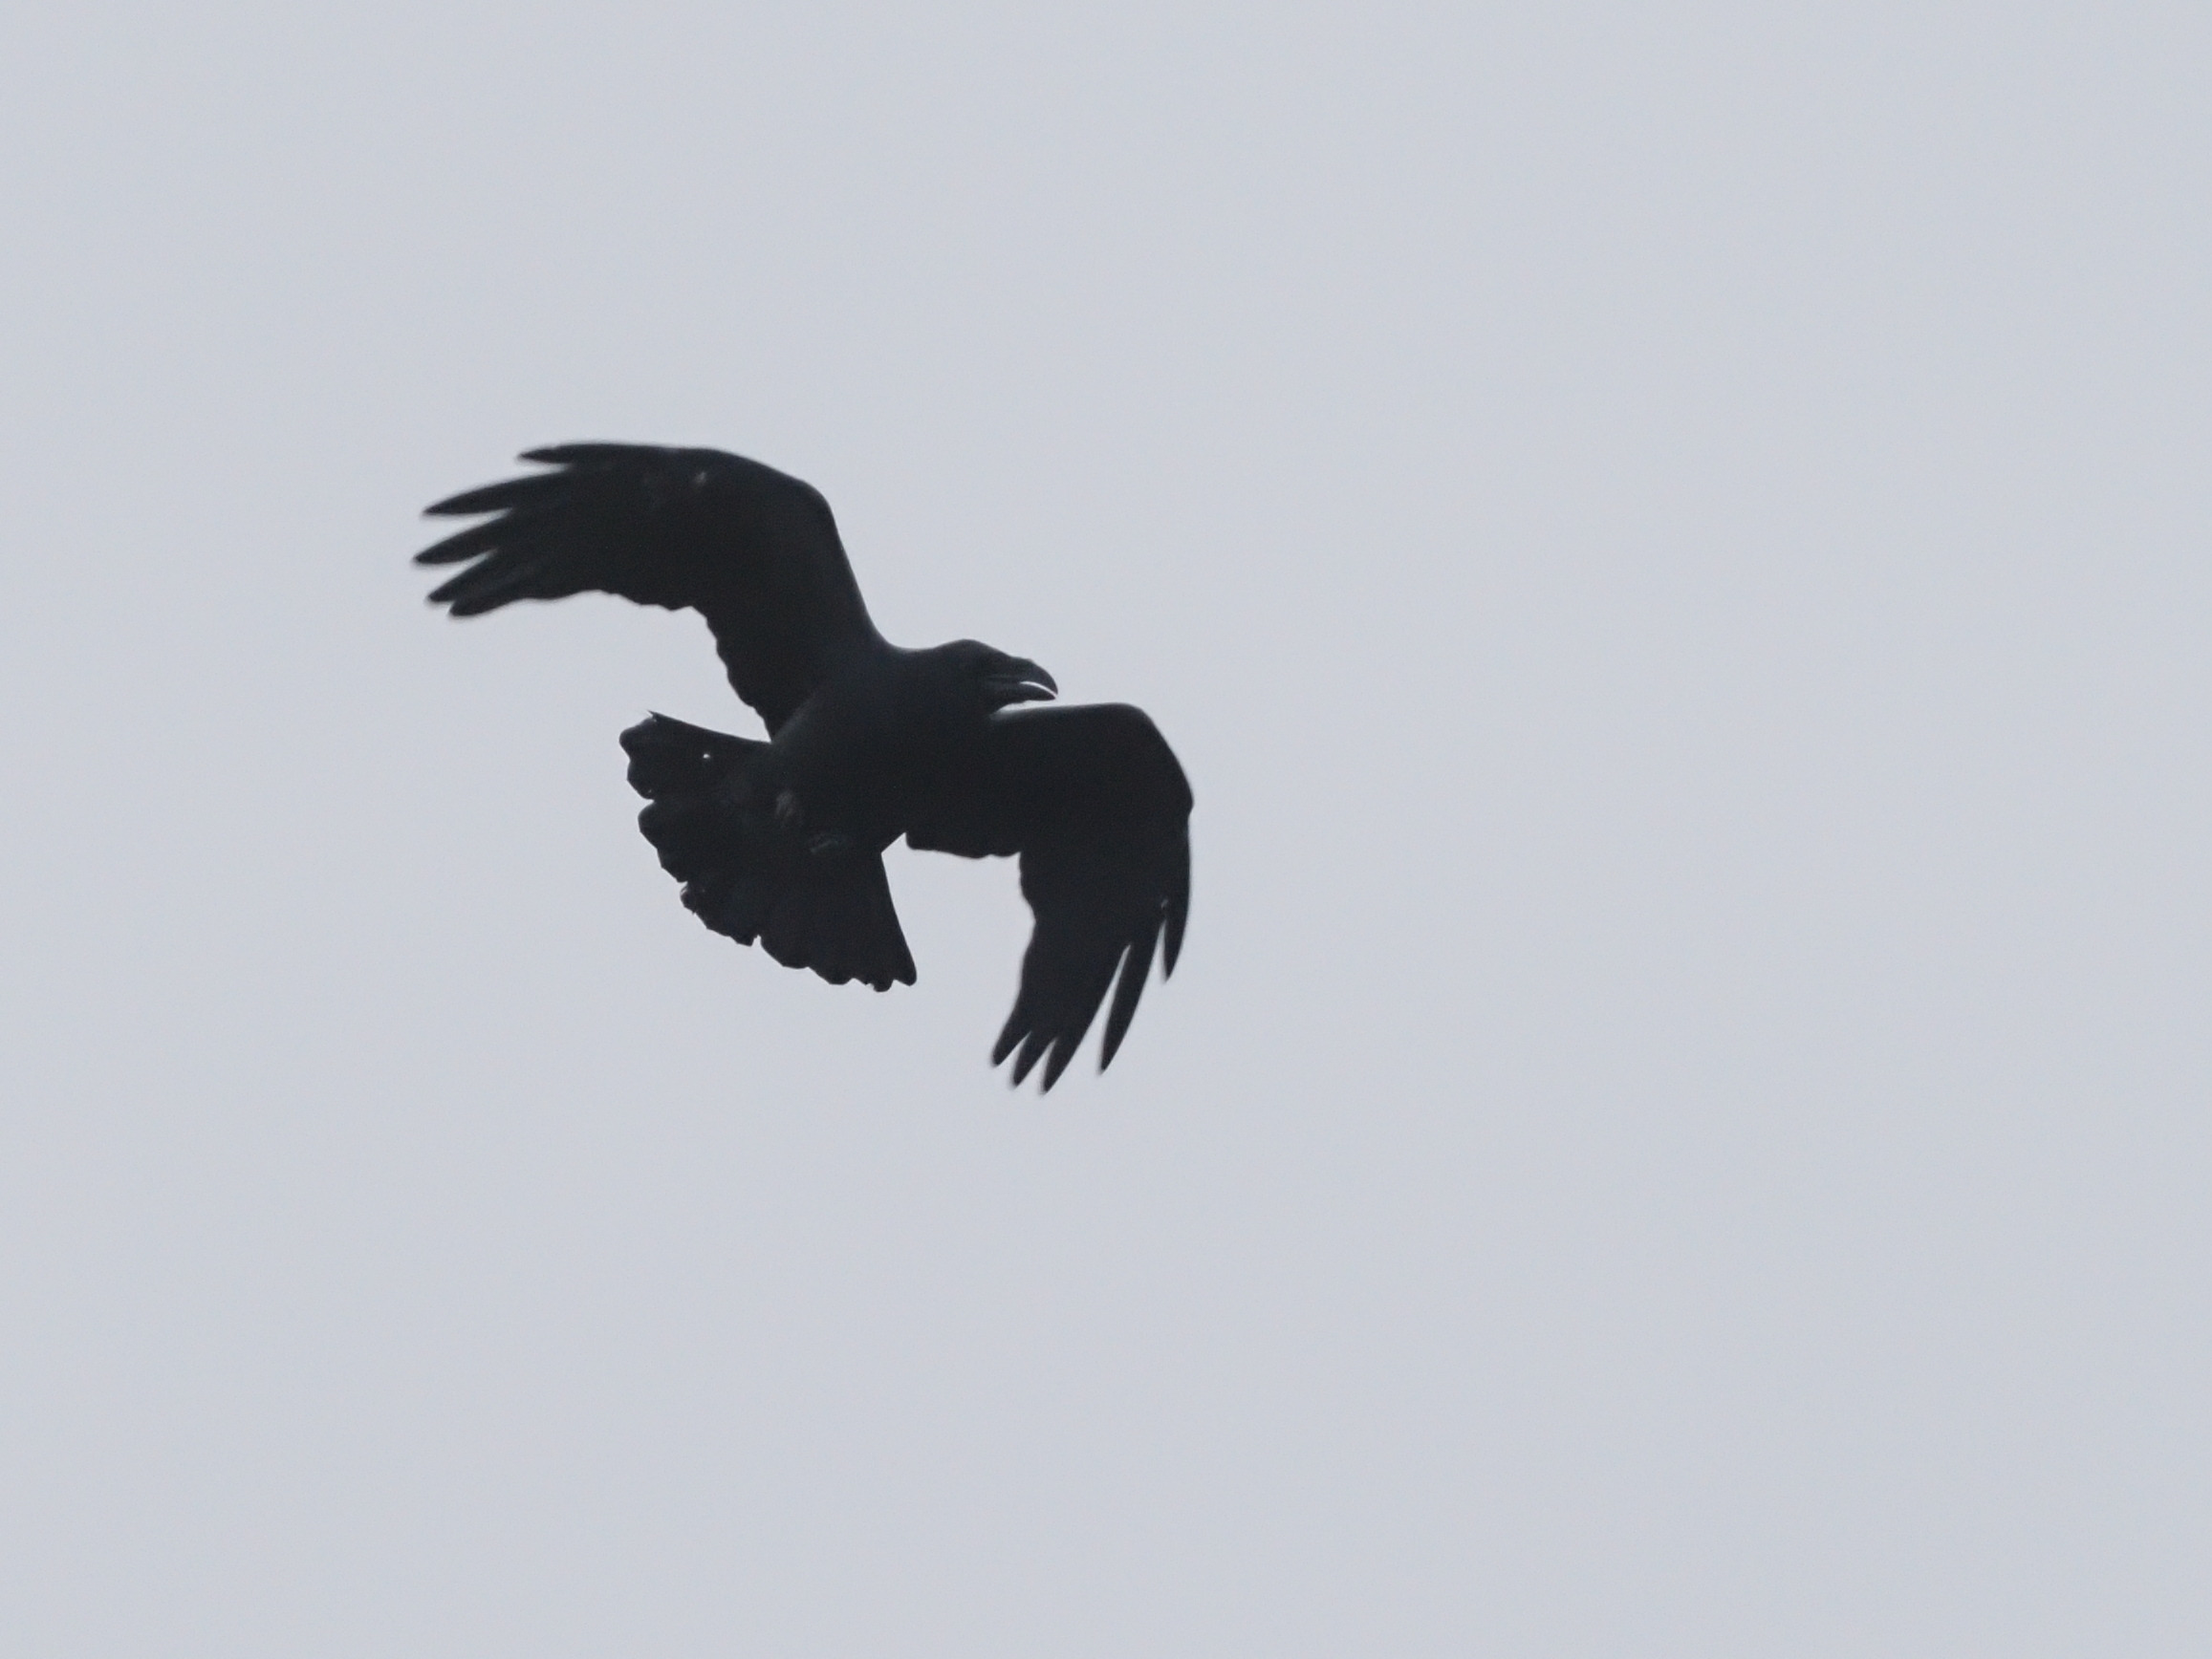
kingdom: Animalia
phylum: Chordata
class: Aves
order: Passeriformes
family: Corvidae
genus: Corvus
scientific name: Corvus corax
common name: Ravn
